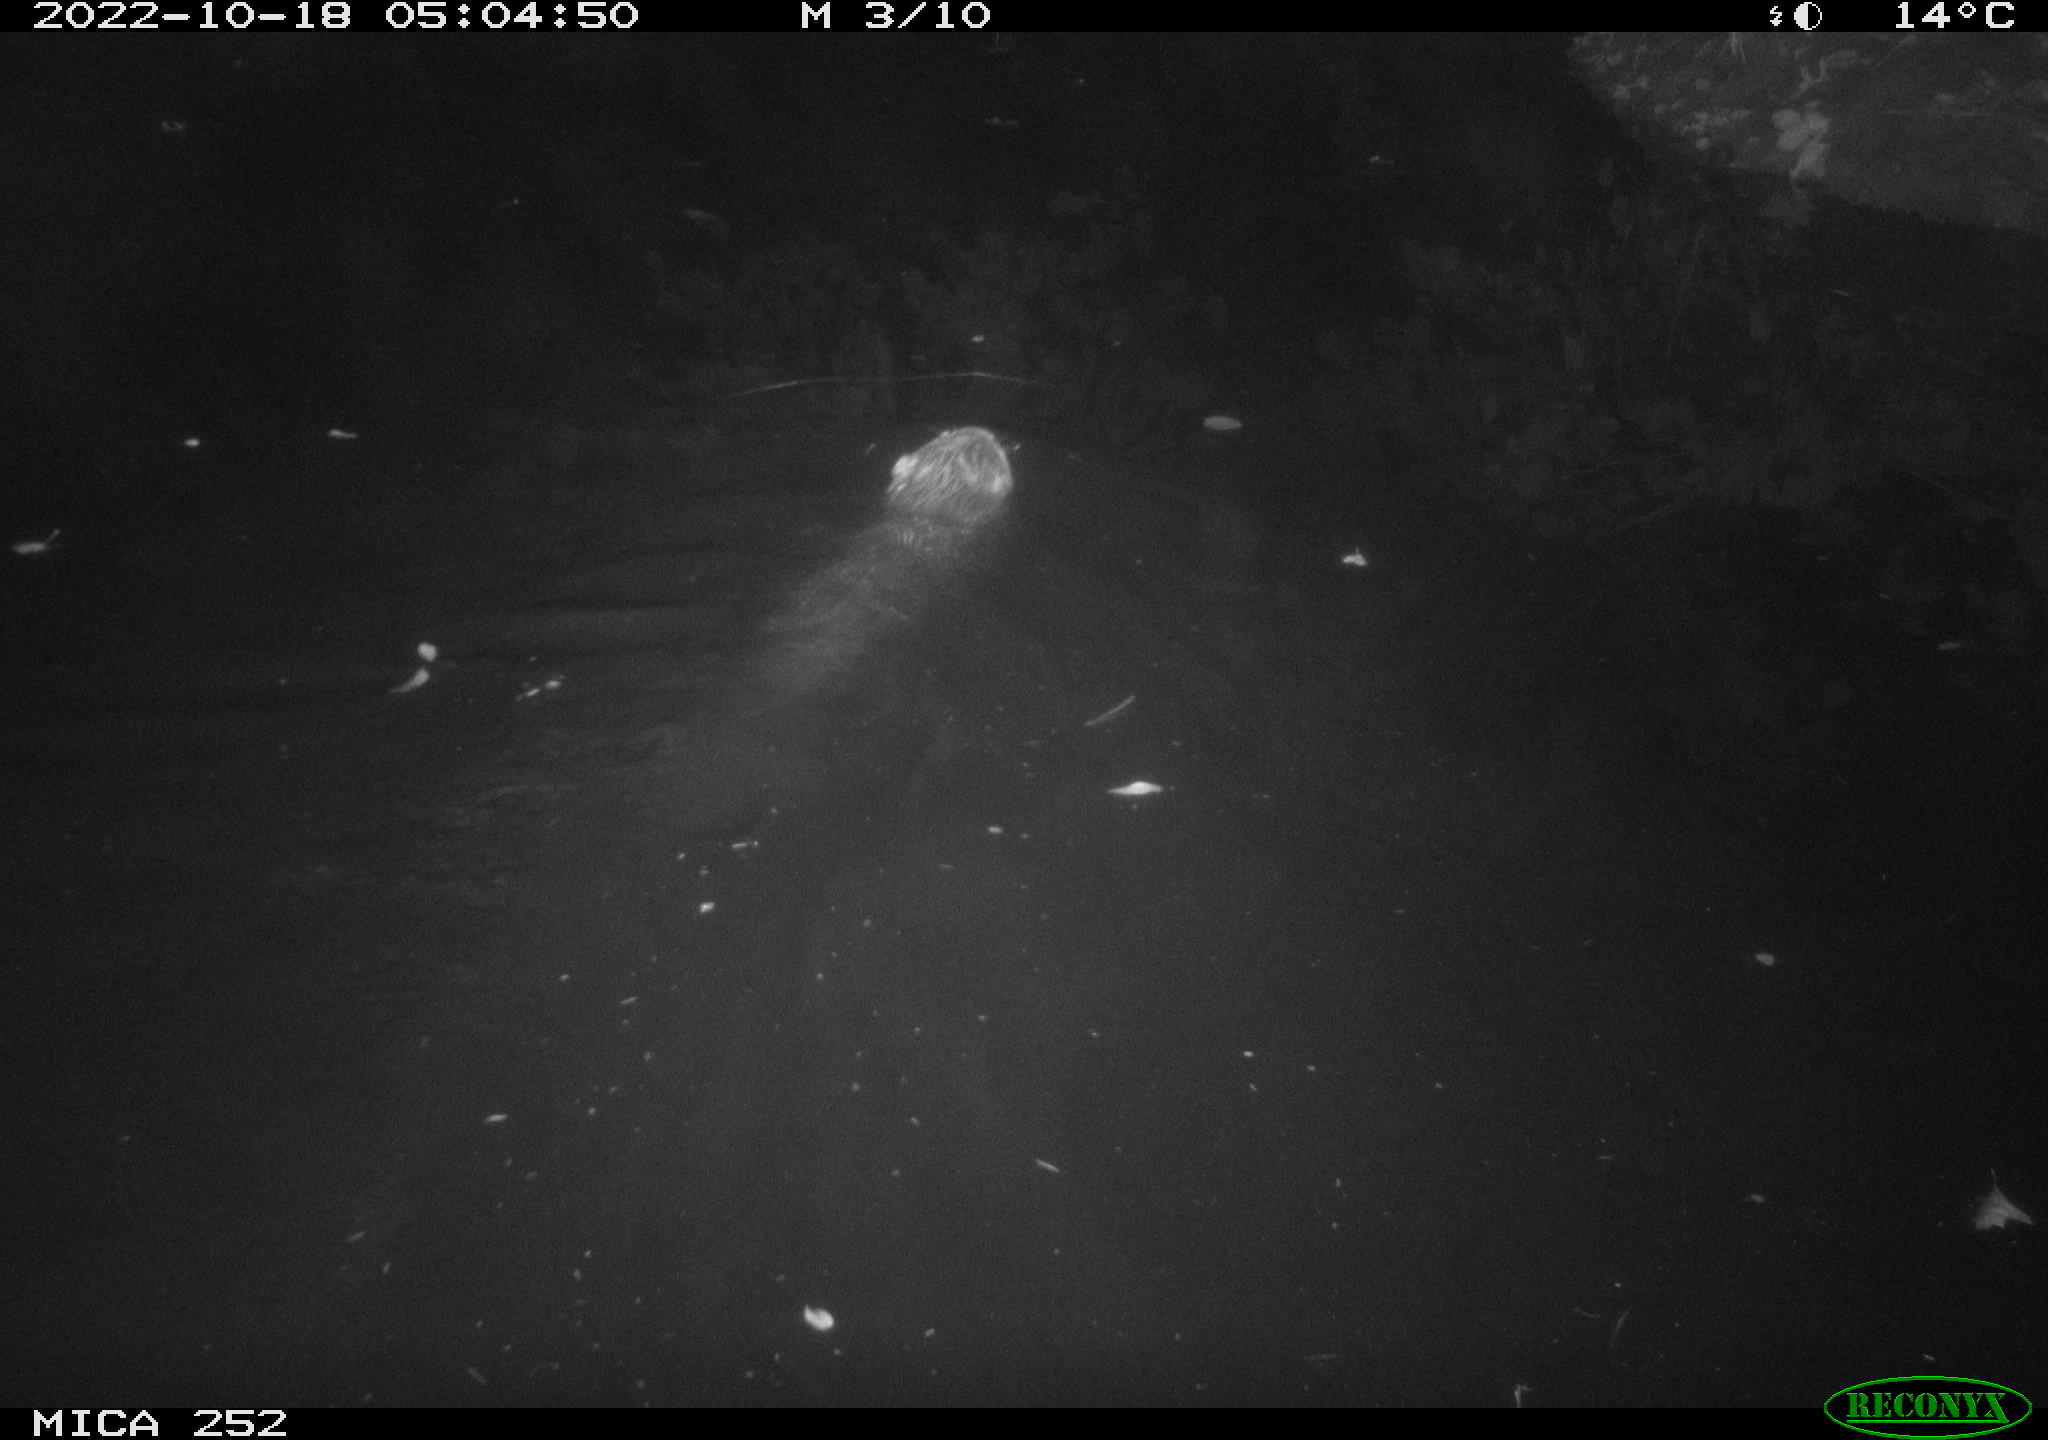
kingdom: Animalia
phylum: Chordata
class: Mammalia
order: Rodentia
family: Castoridae
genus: Castor
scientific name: Castor fiber
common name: Eurasian beaver
